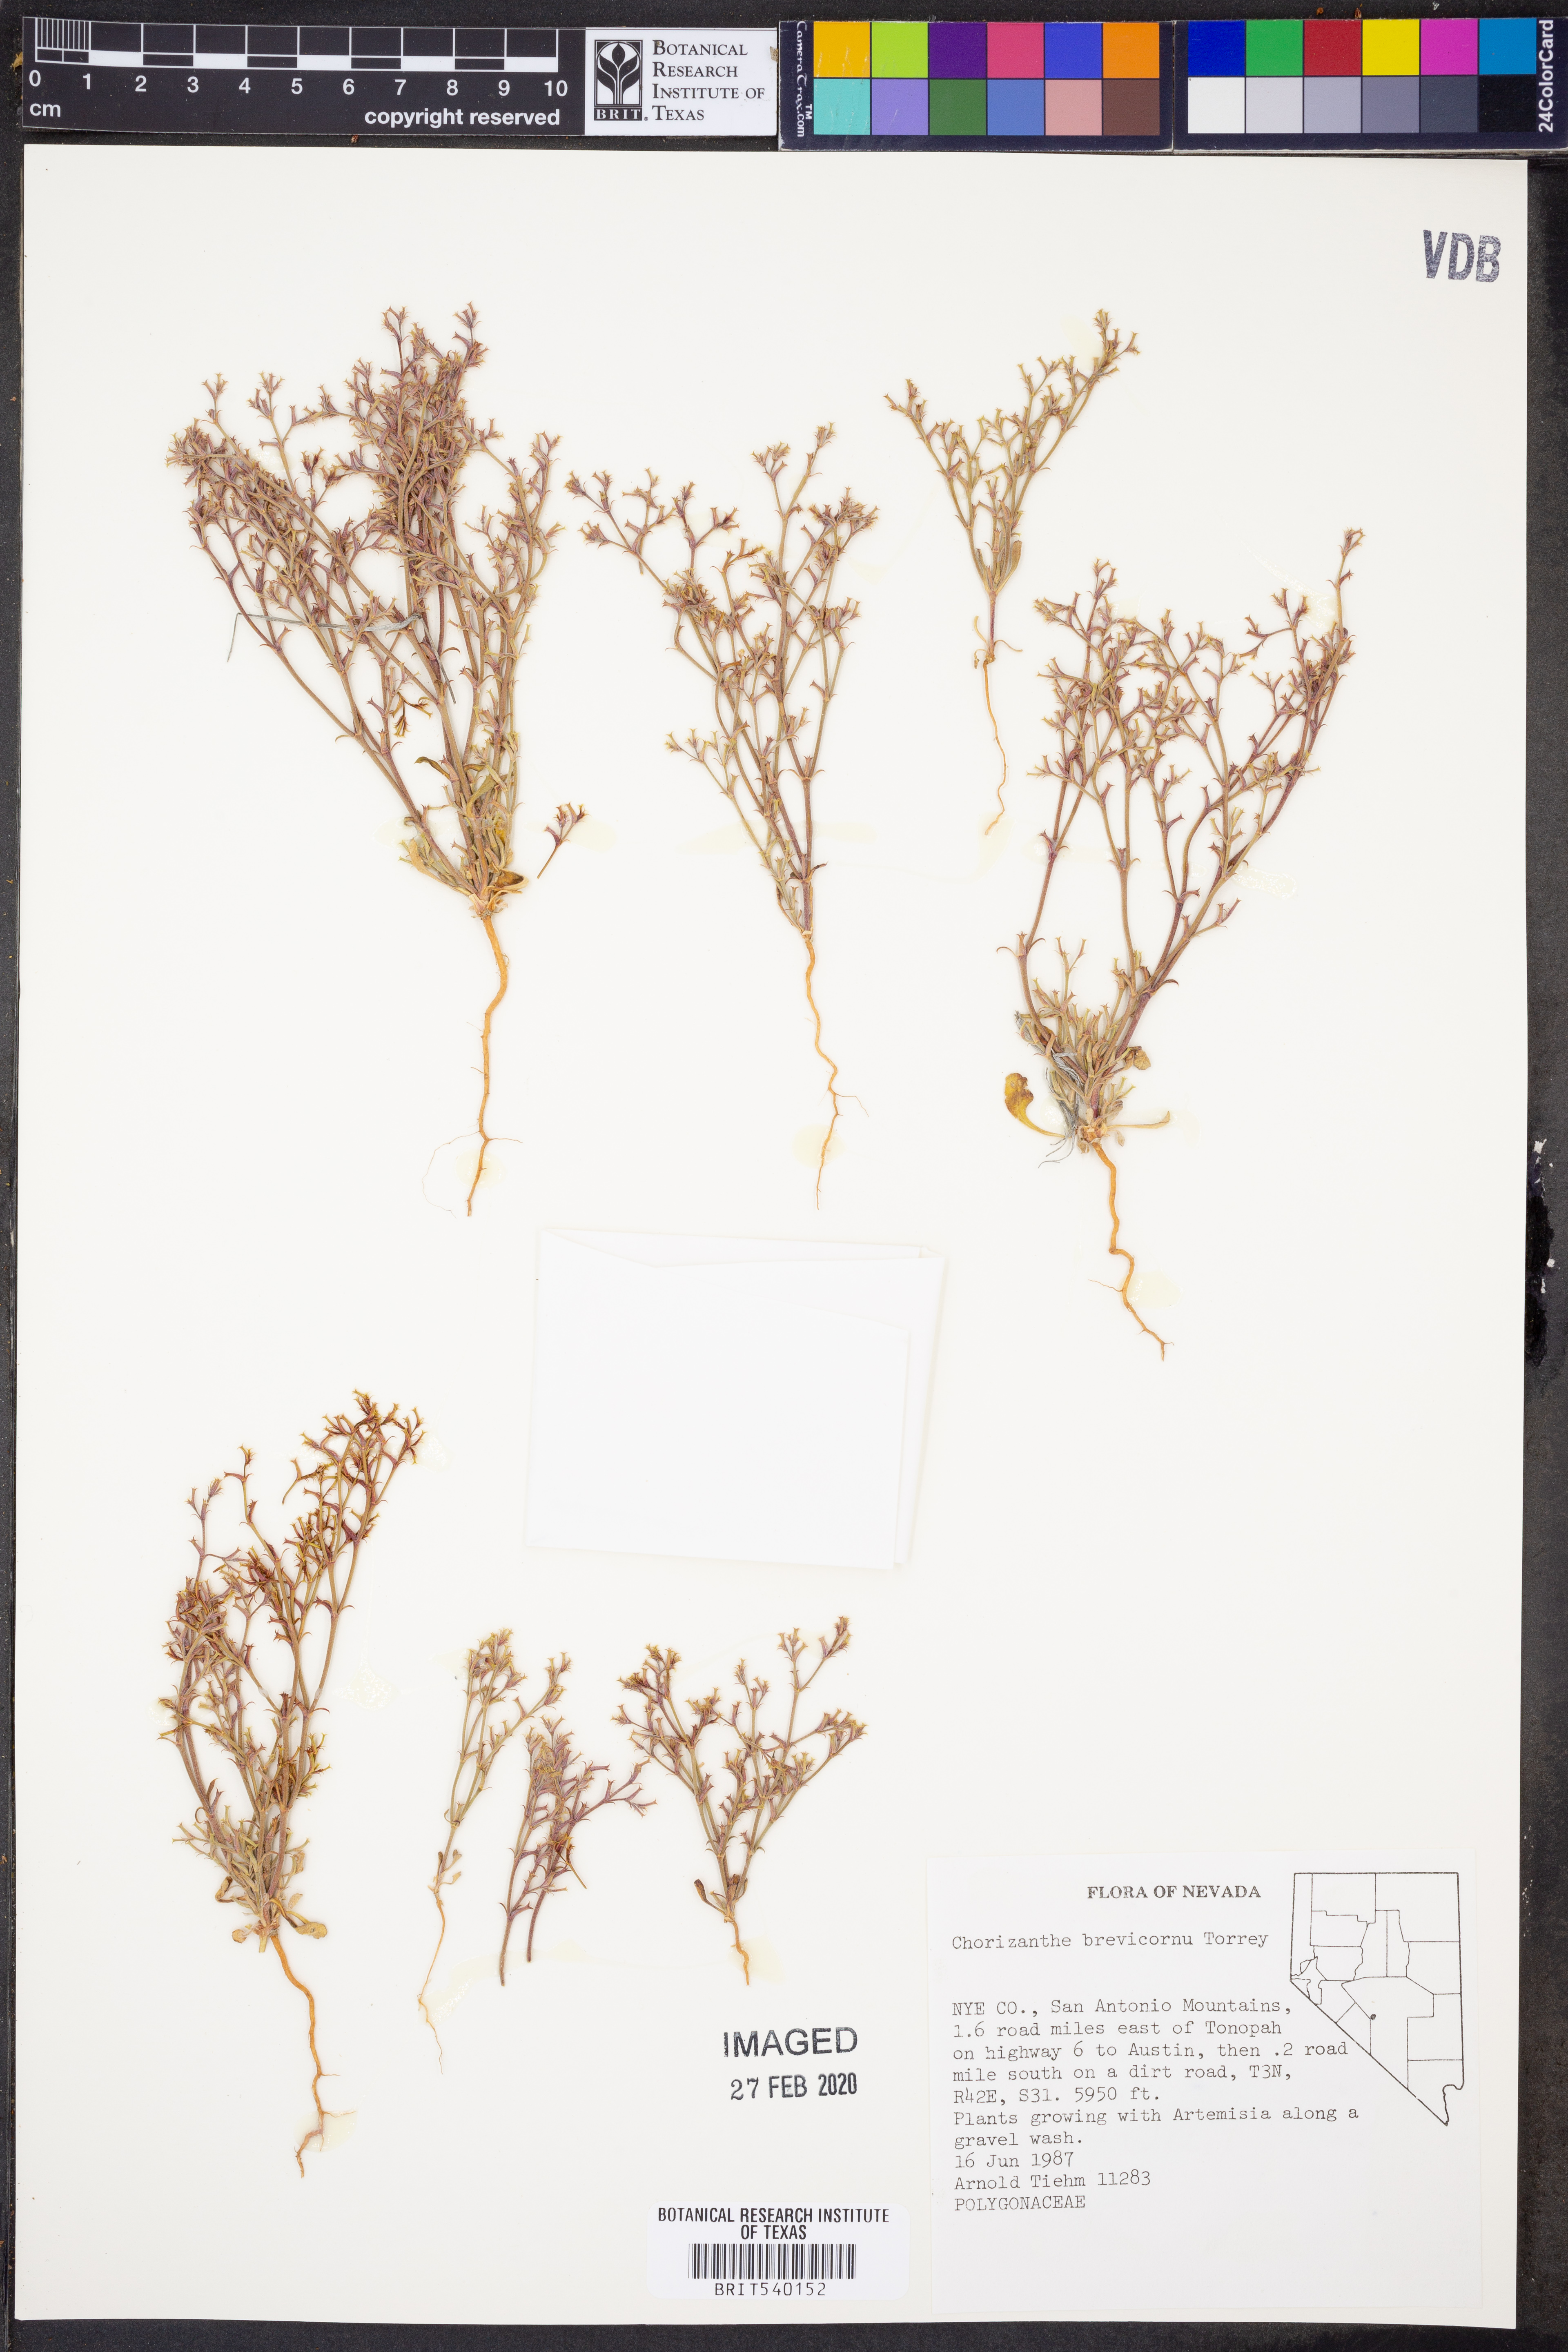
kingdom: Plantae
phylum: Tracheophyta
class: Magnoliopsida
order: Caryophyllales
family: Polygonaceae
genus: Chorizanthe
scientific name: Chorizanthe brevicornu
